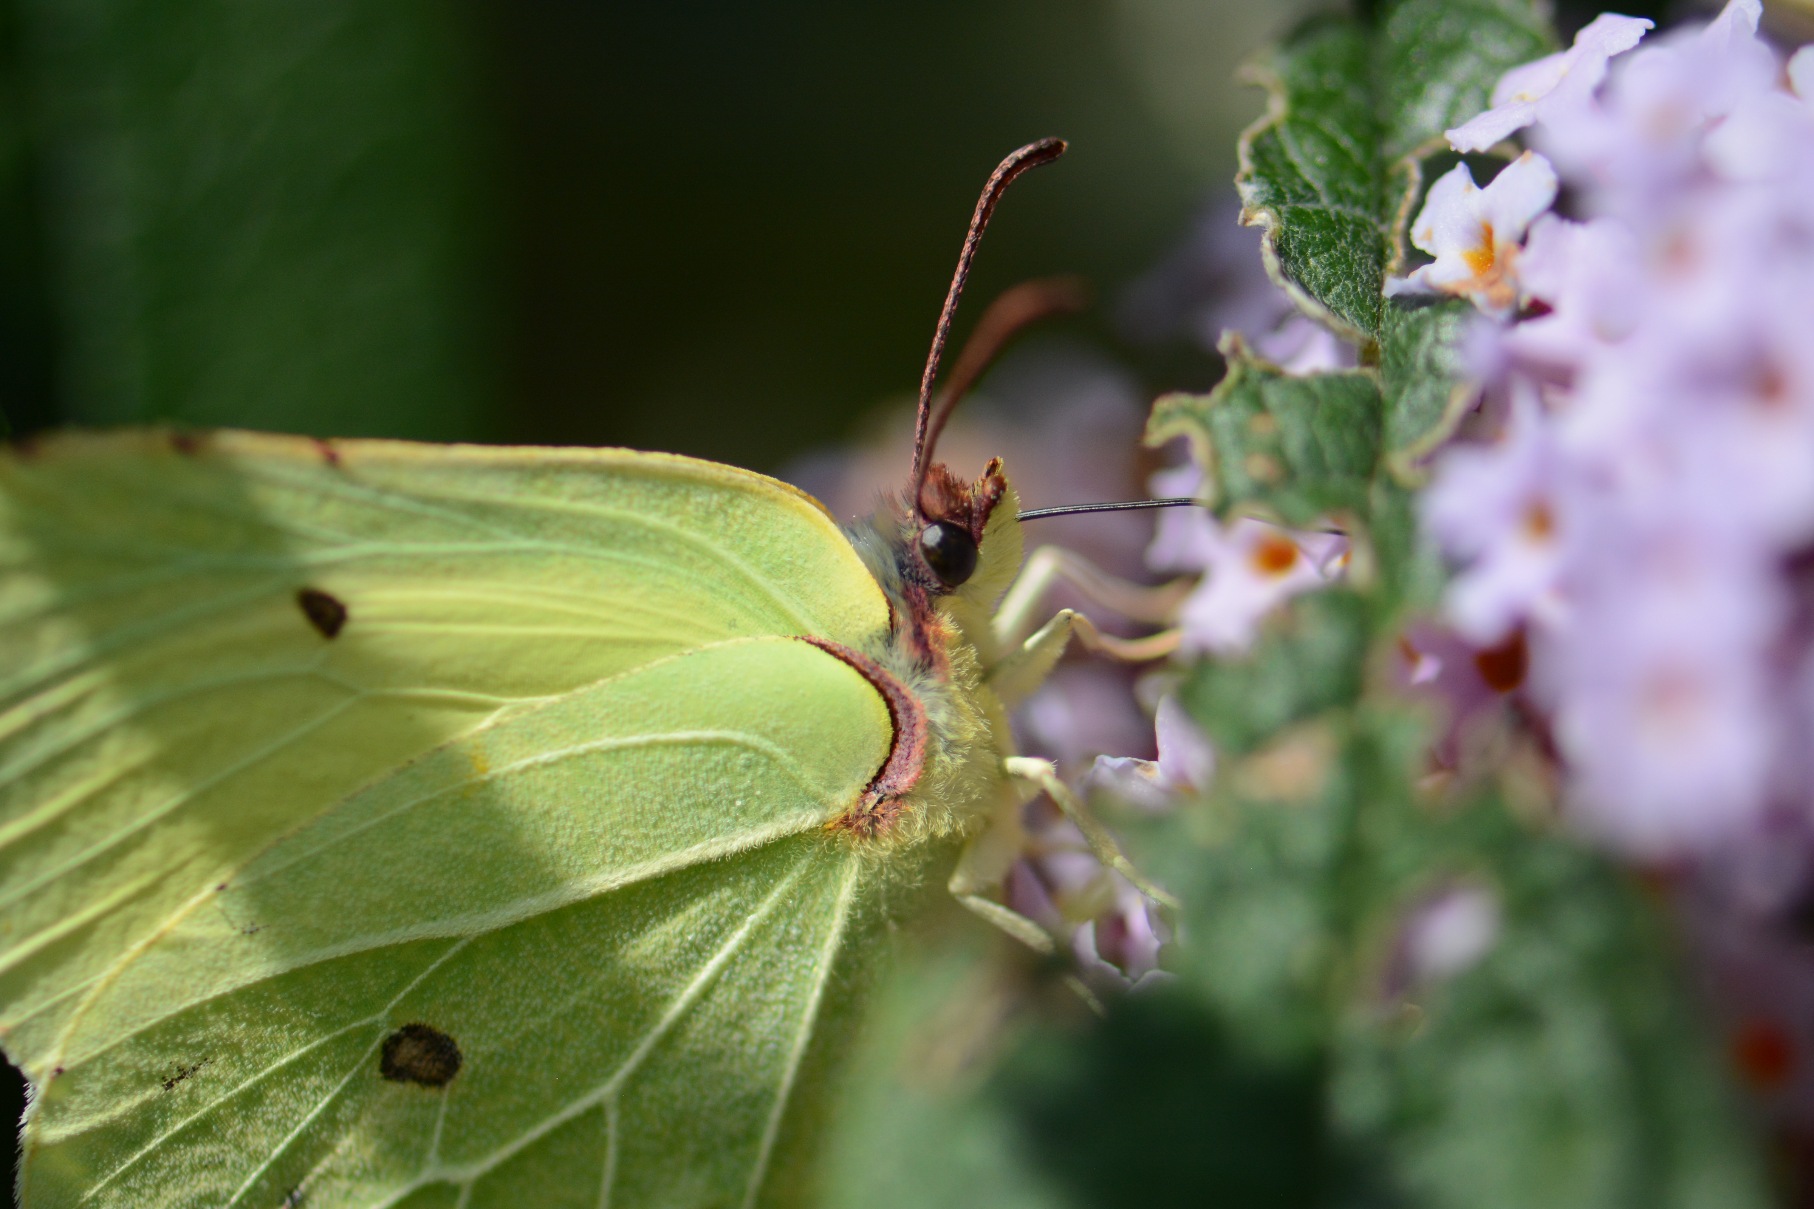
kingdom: Animalia
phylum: Arthropoda
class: Insecta
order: Lepidoptera
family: Pieridae
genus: Gonepteryx
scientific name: Gonepteryx rhamni
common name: Citronsommerfugl
